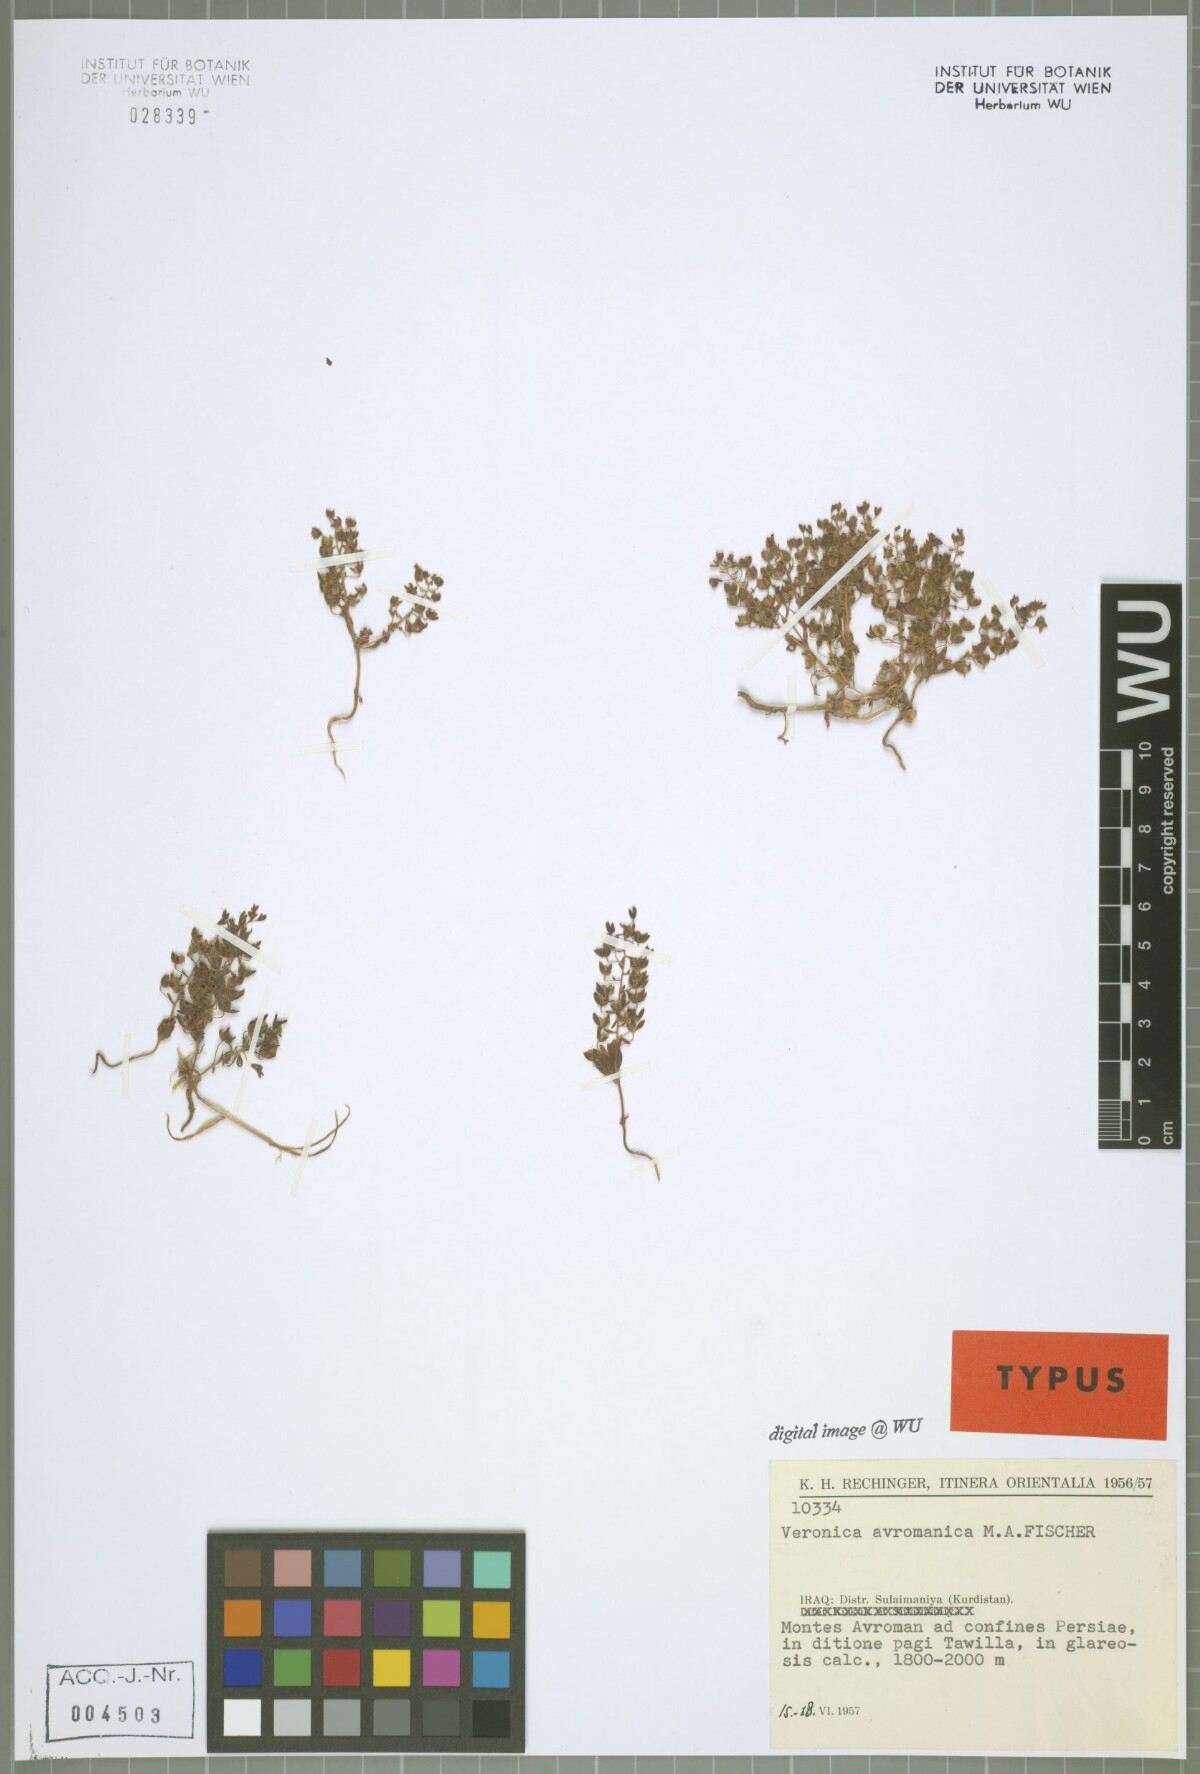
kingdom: Plantae
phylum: Tracheophyta
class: Magnoliopsida
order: Lamiales
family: Plantaginaceae
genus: Veronica
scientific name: Veronica avromanica
